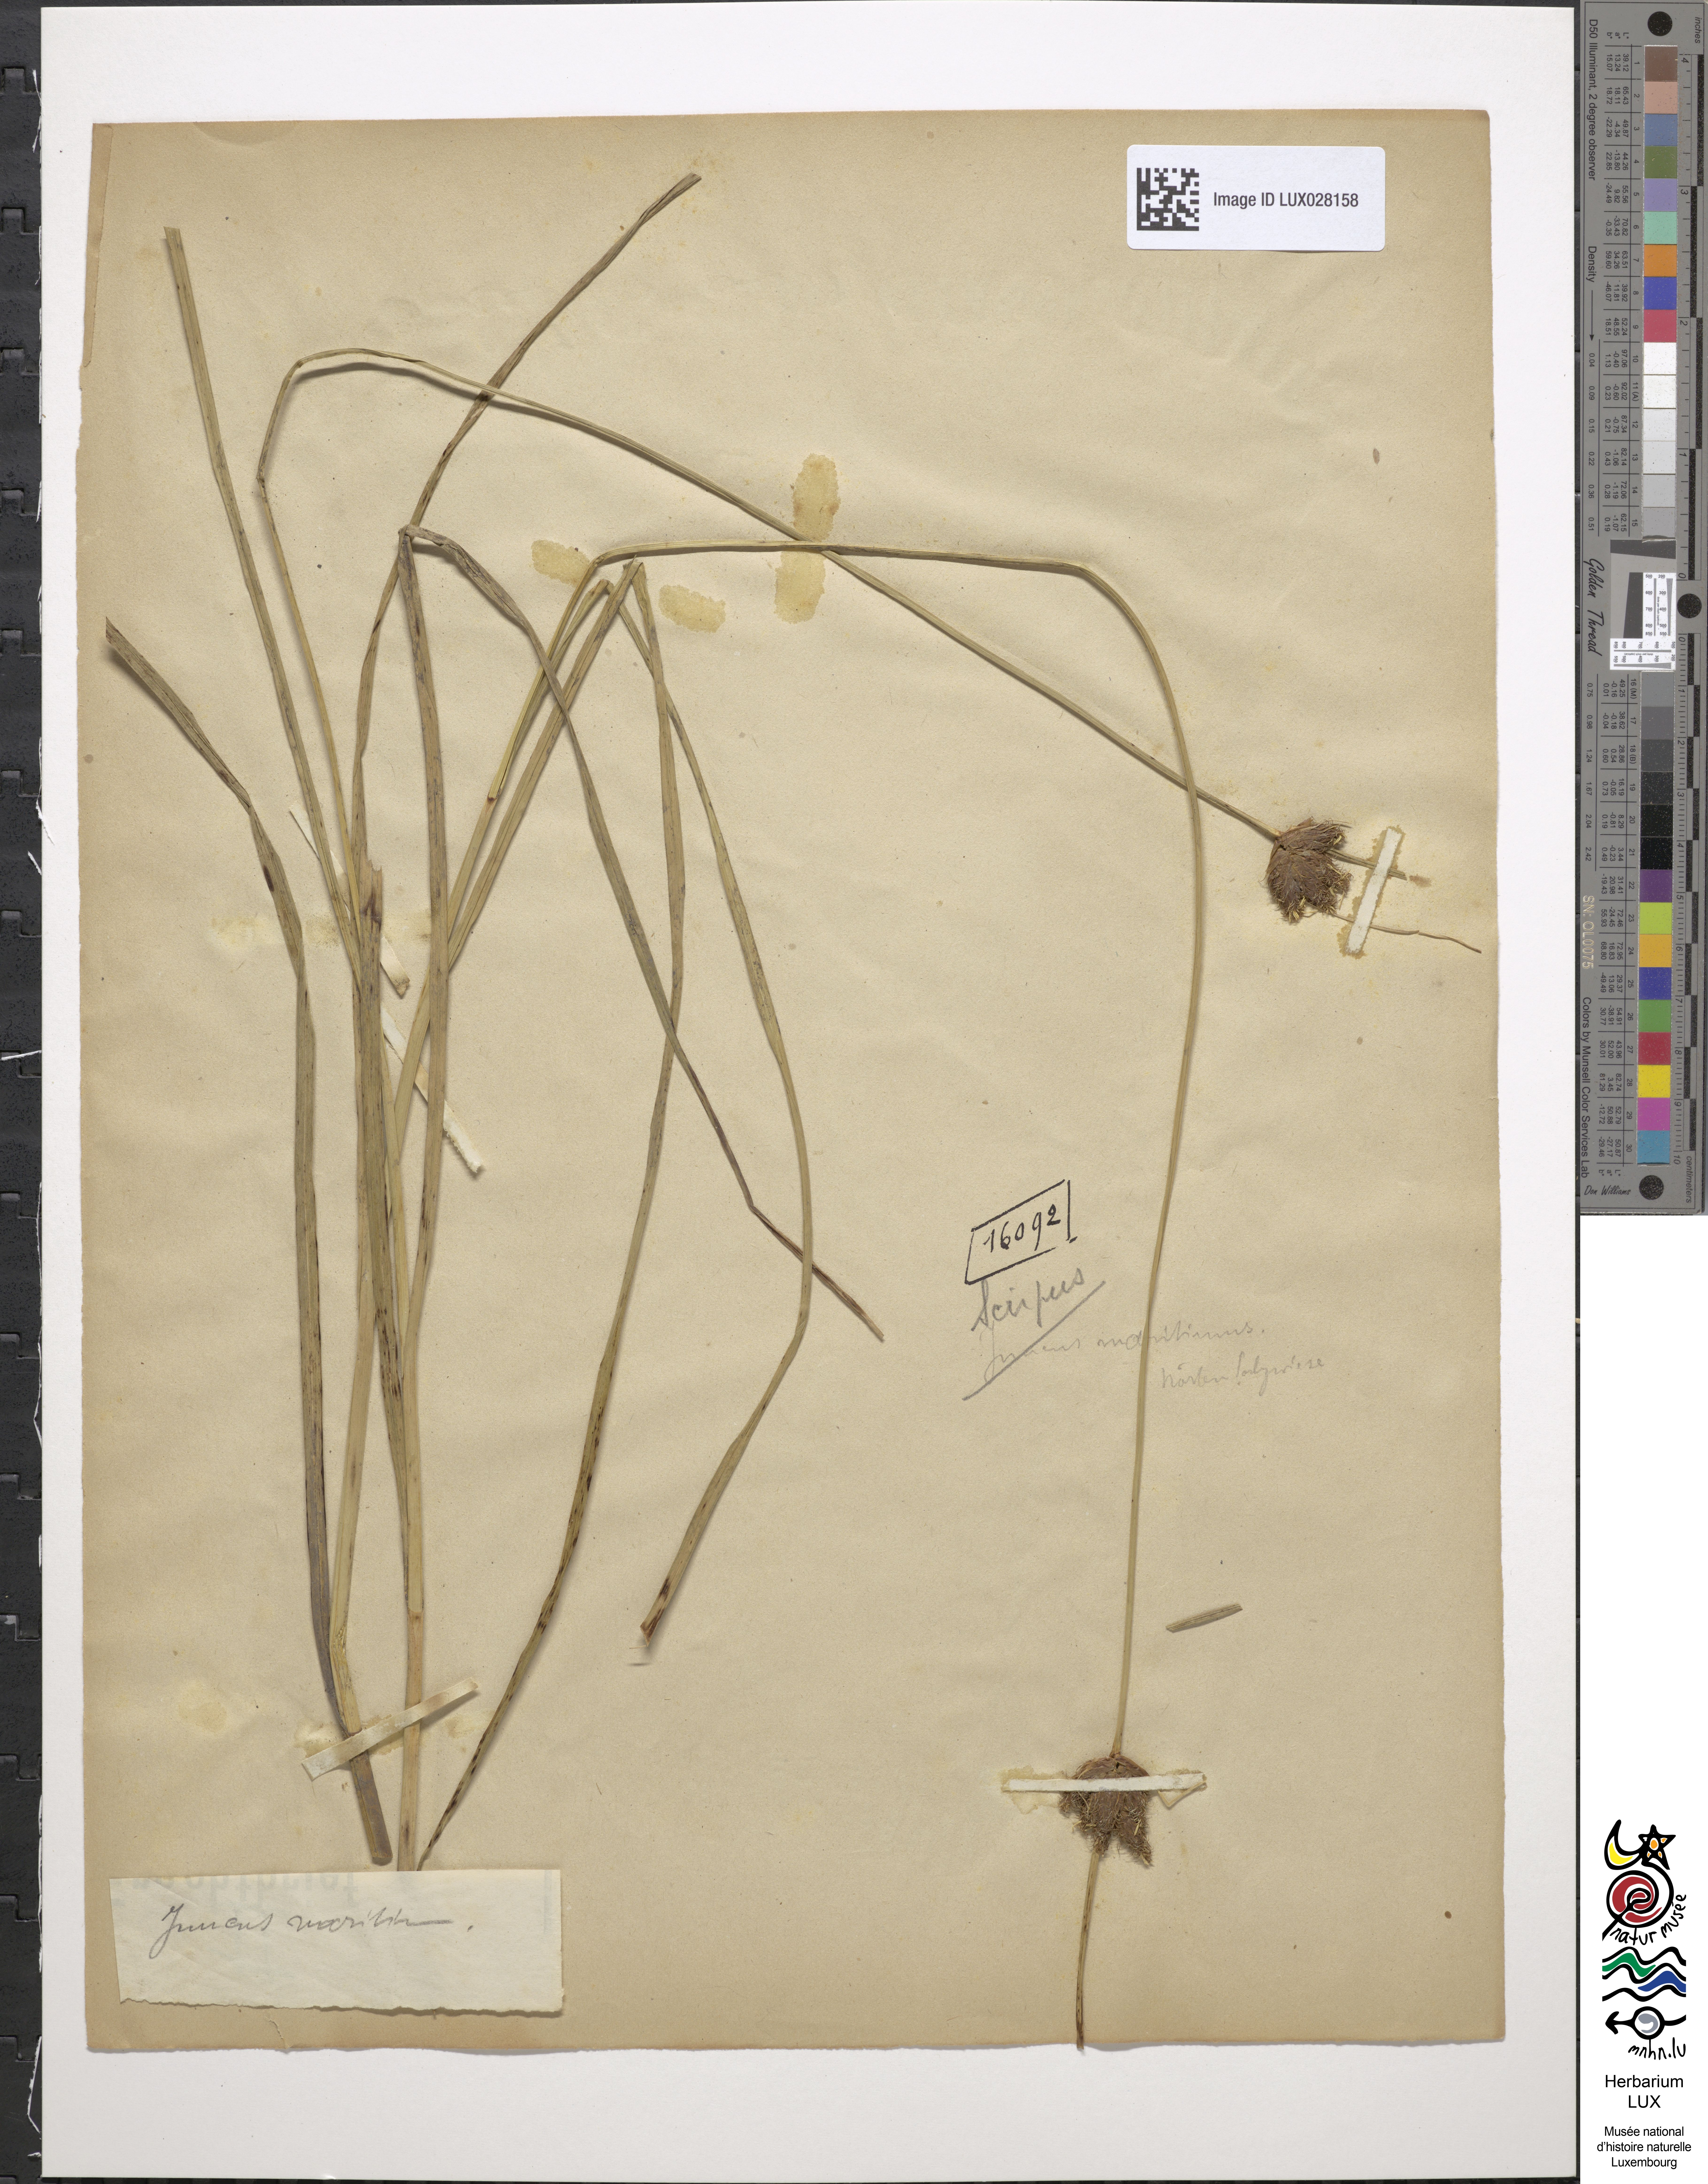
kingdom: Plantae
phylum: Tracheophyta
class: Liliopsida
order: Poales
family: Cyperaceae
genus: Bolboschoenus
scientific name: Bolboschoenus maritimus
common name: Sea club-rush
